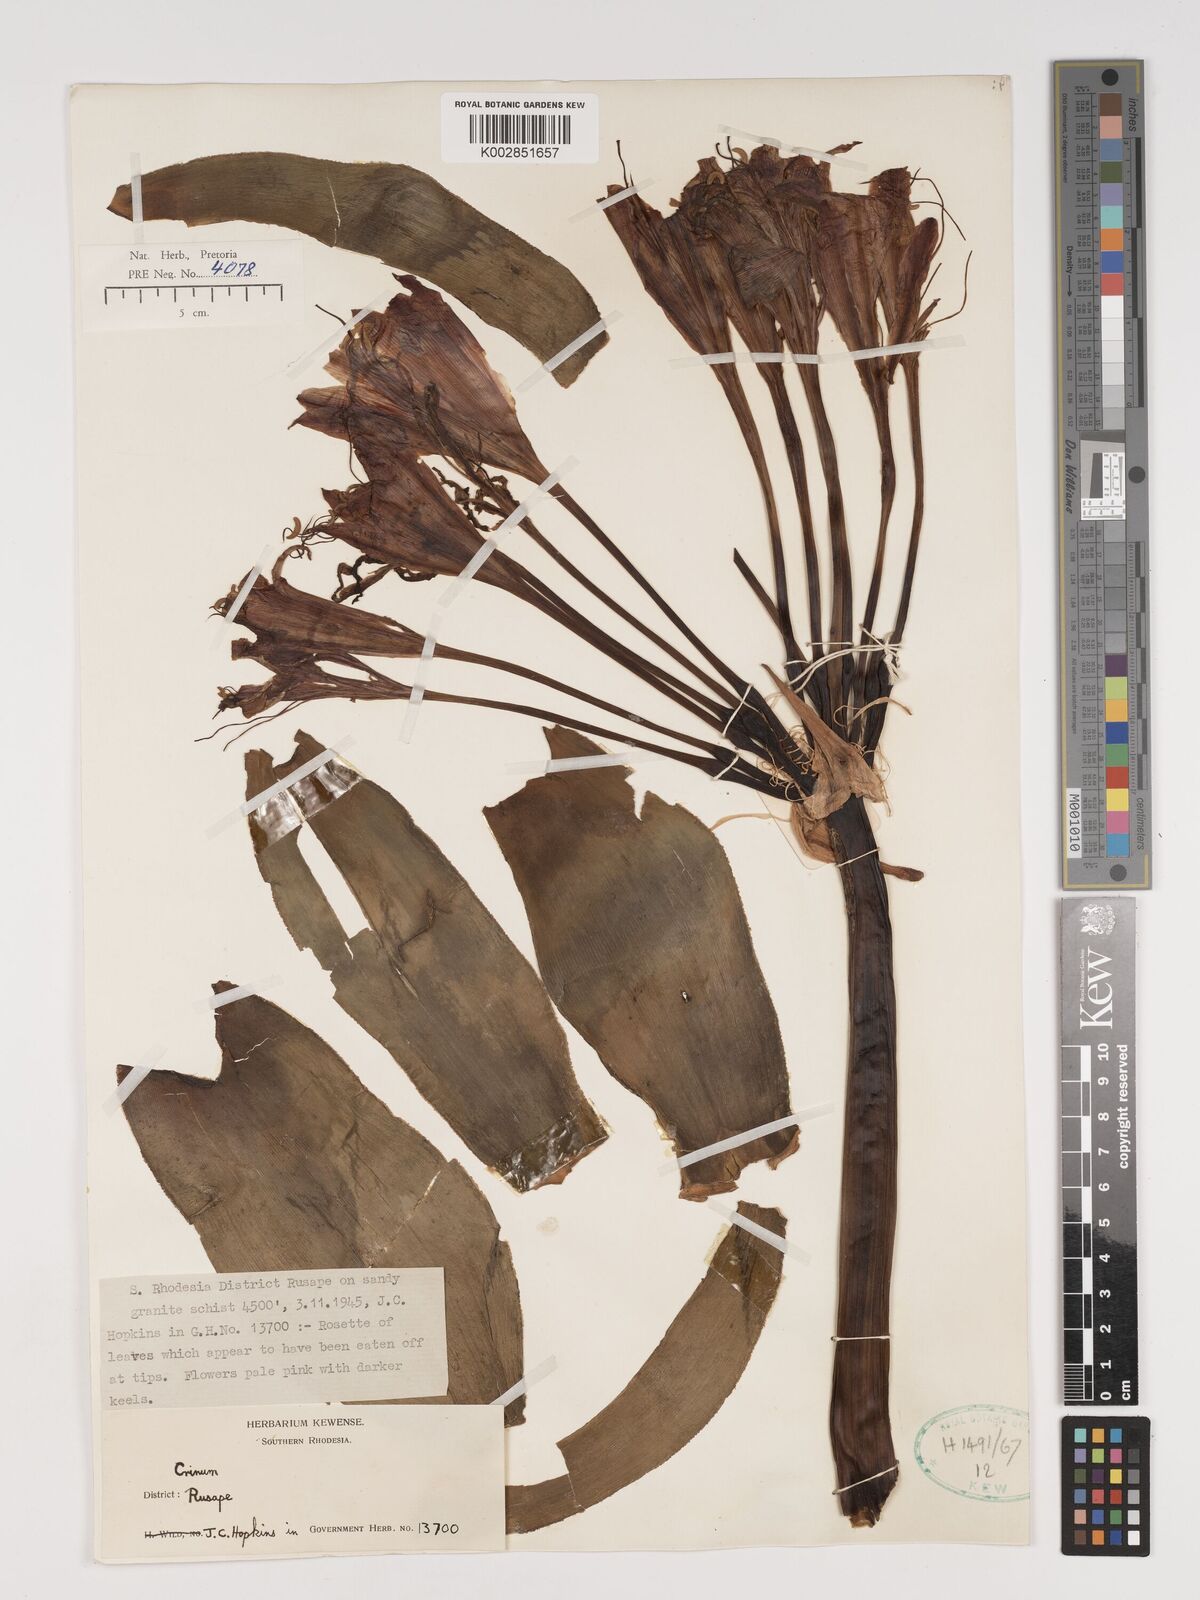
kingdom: Plantae
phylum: Tracheophyta
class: Liliopsida
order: Asparagales
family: Amaryllidaceae
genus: Crinum
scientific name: Crinum graminicola
